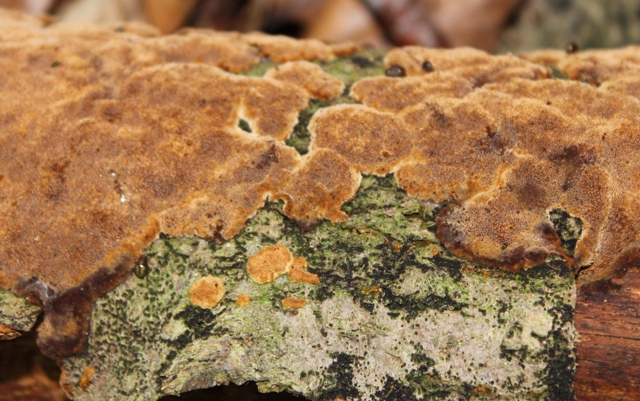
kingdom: Fungi
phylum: Basidiomycota
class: Agaricomycetes
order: Hymenochaetales
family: Hymenochaetaceae
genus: Fuscoporia
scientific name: Fuscoporia ferrea
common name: skorpe-ildporesvamp
